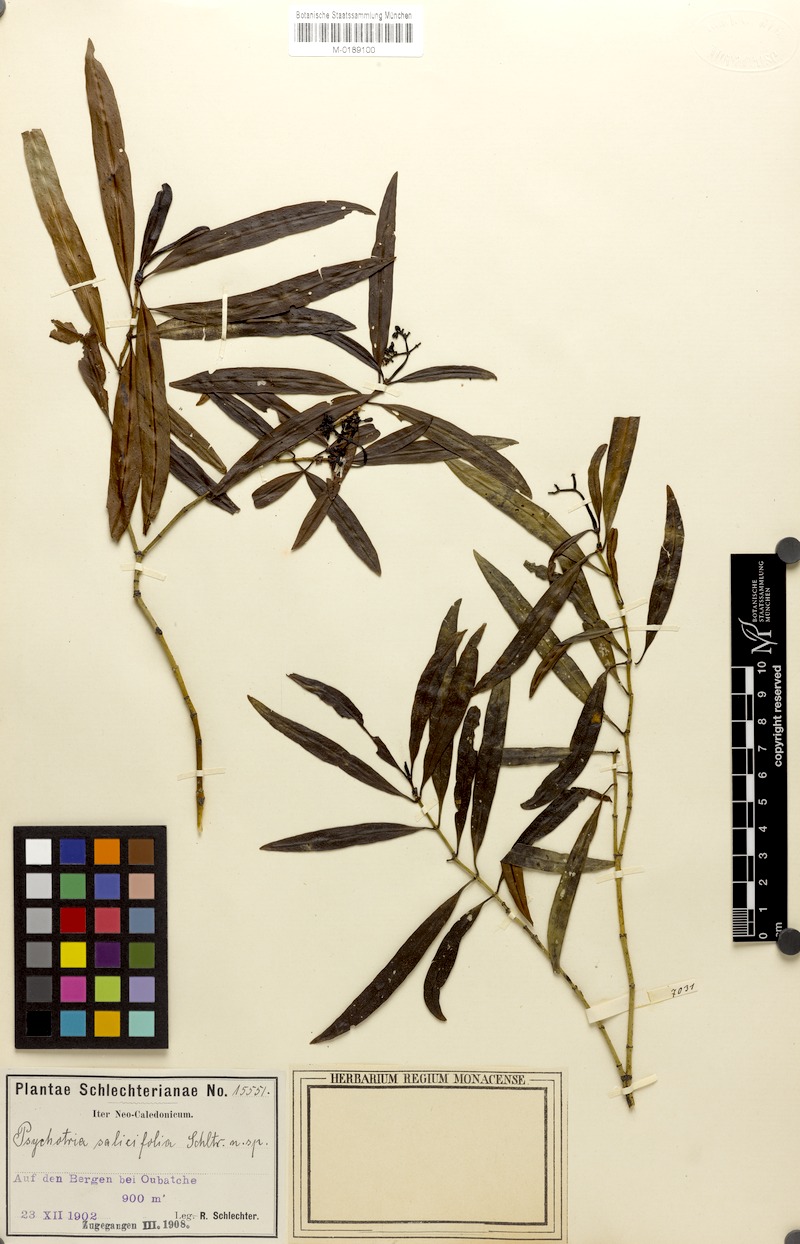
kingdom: Plantae
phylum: Tracheophyta
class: Magnoliopsida
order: Gentianales
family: Rubiaceae
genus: Psychotria
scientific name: Psychotria stricta
